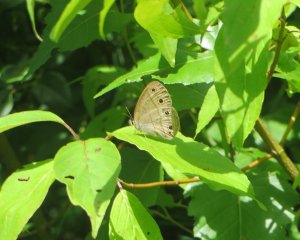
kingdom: Animalia
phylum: Arthropoda
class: Insecta
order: Lepidoptera
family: Nymphalidae
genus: Euptychia
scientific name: Euptychia cymela
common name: Little Wood Satyr
